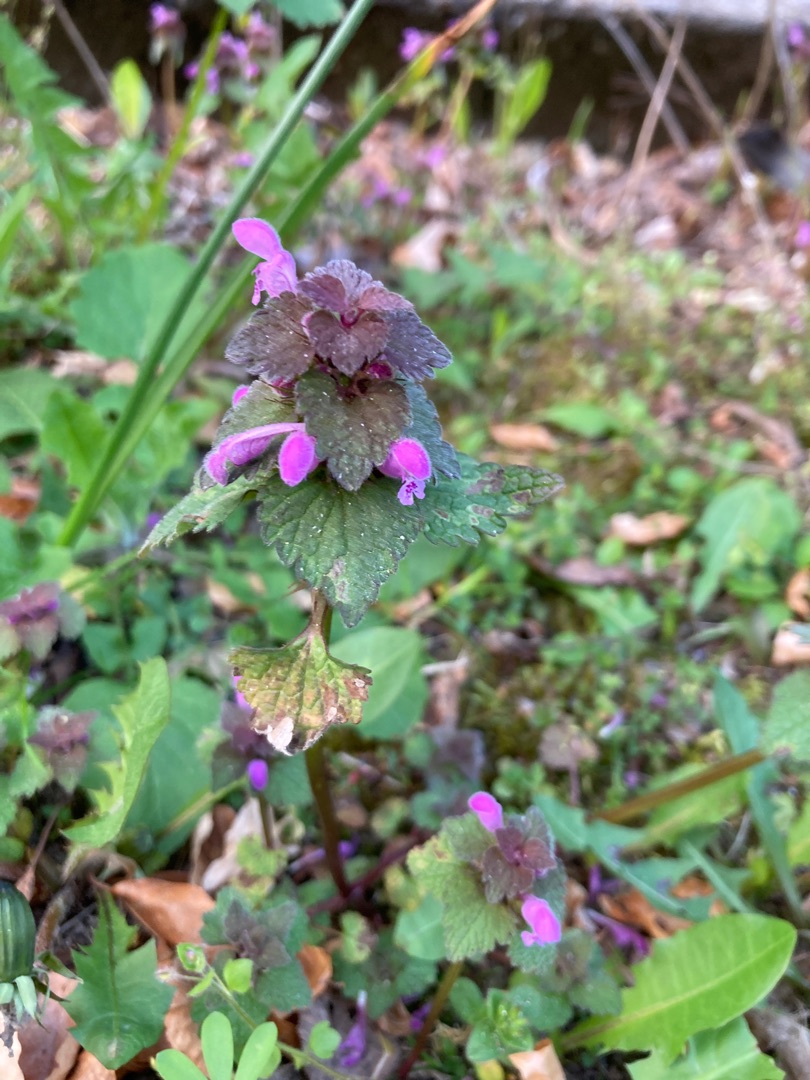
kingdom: Plantae
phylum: Tracheophyta
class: Magnoliopsida
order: Lamiales
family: Lamiaceae
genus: Lamium
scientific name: Lamium purpureum
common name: Rød tvetand
